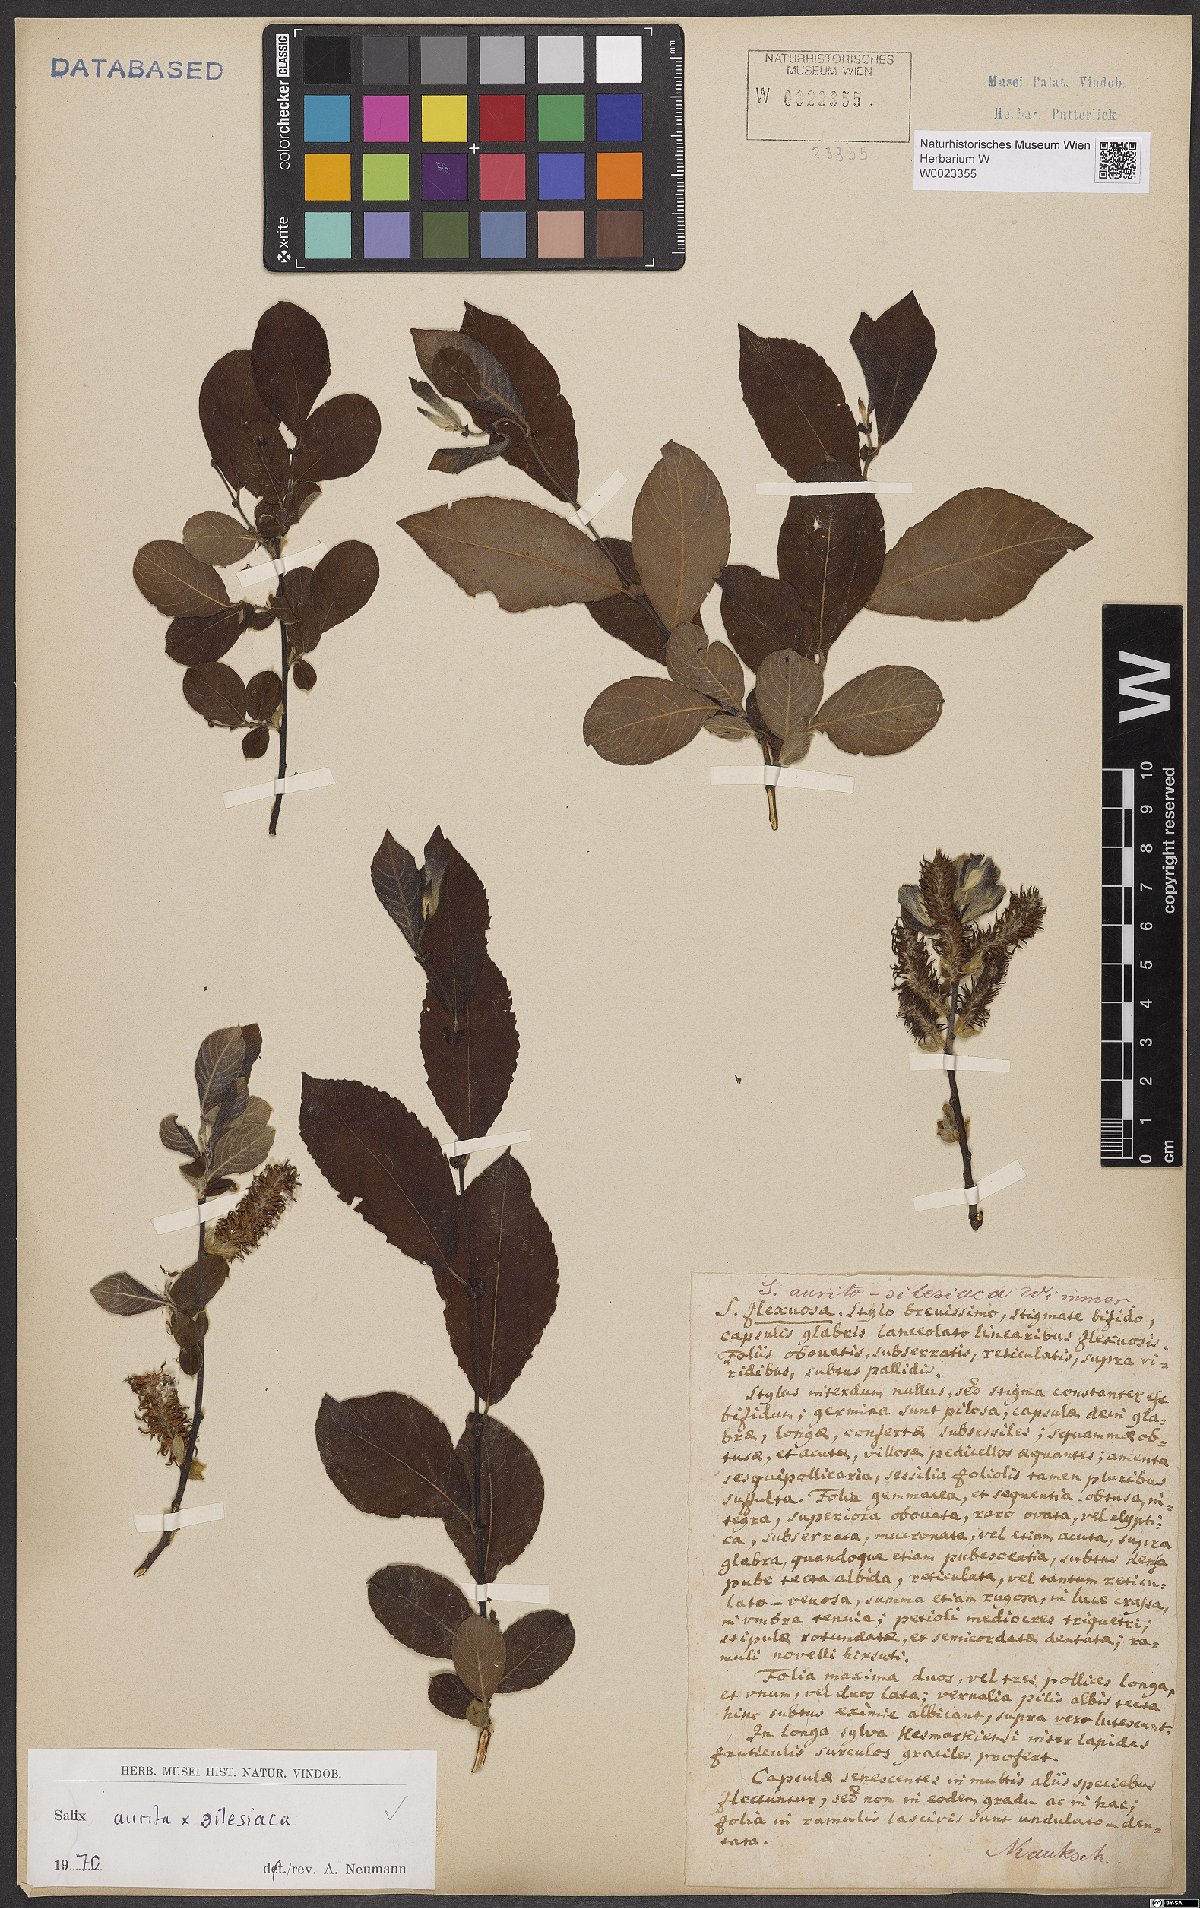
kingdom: Plantae
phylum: Tracheophyta
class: Magnoliopsida
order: Malpighiales
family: Salicaceae
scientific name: Salicaceae
